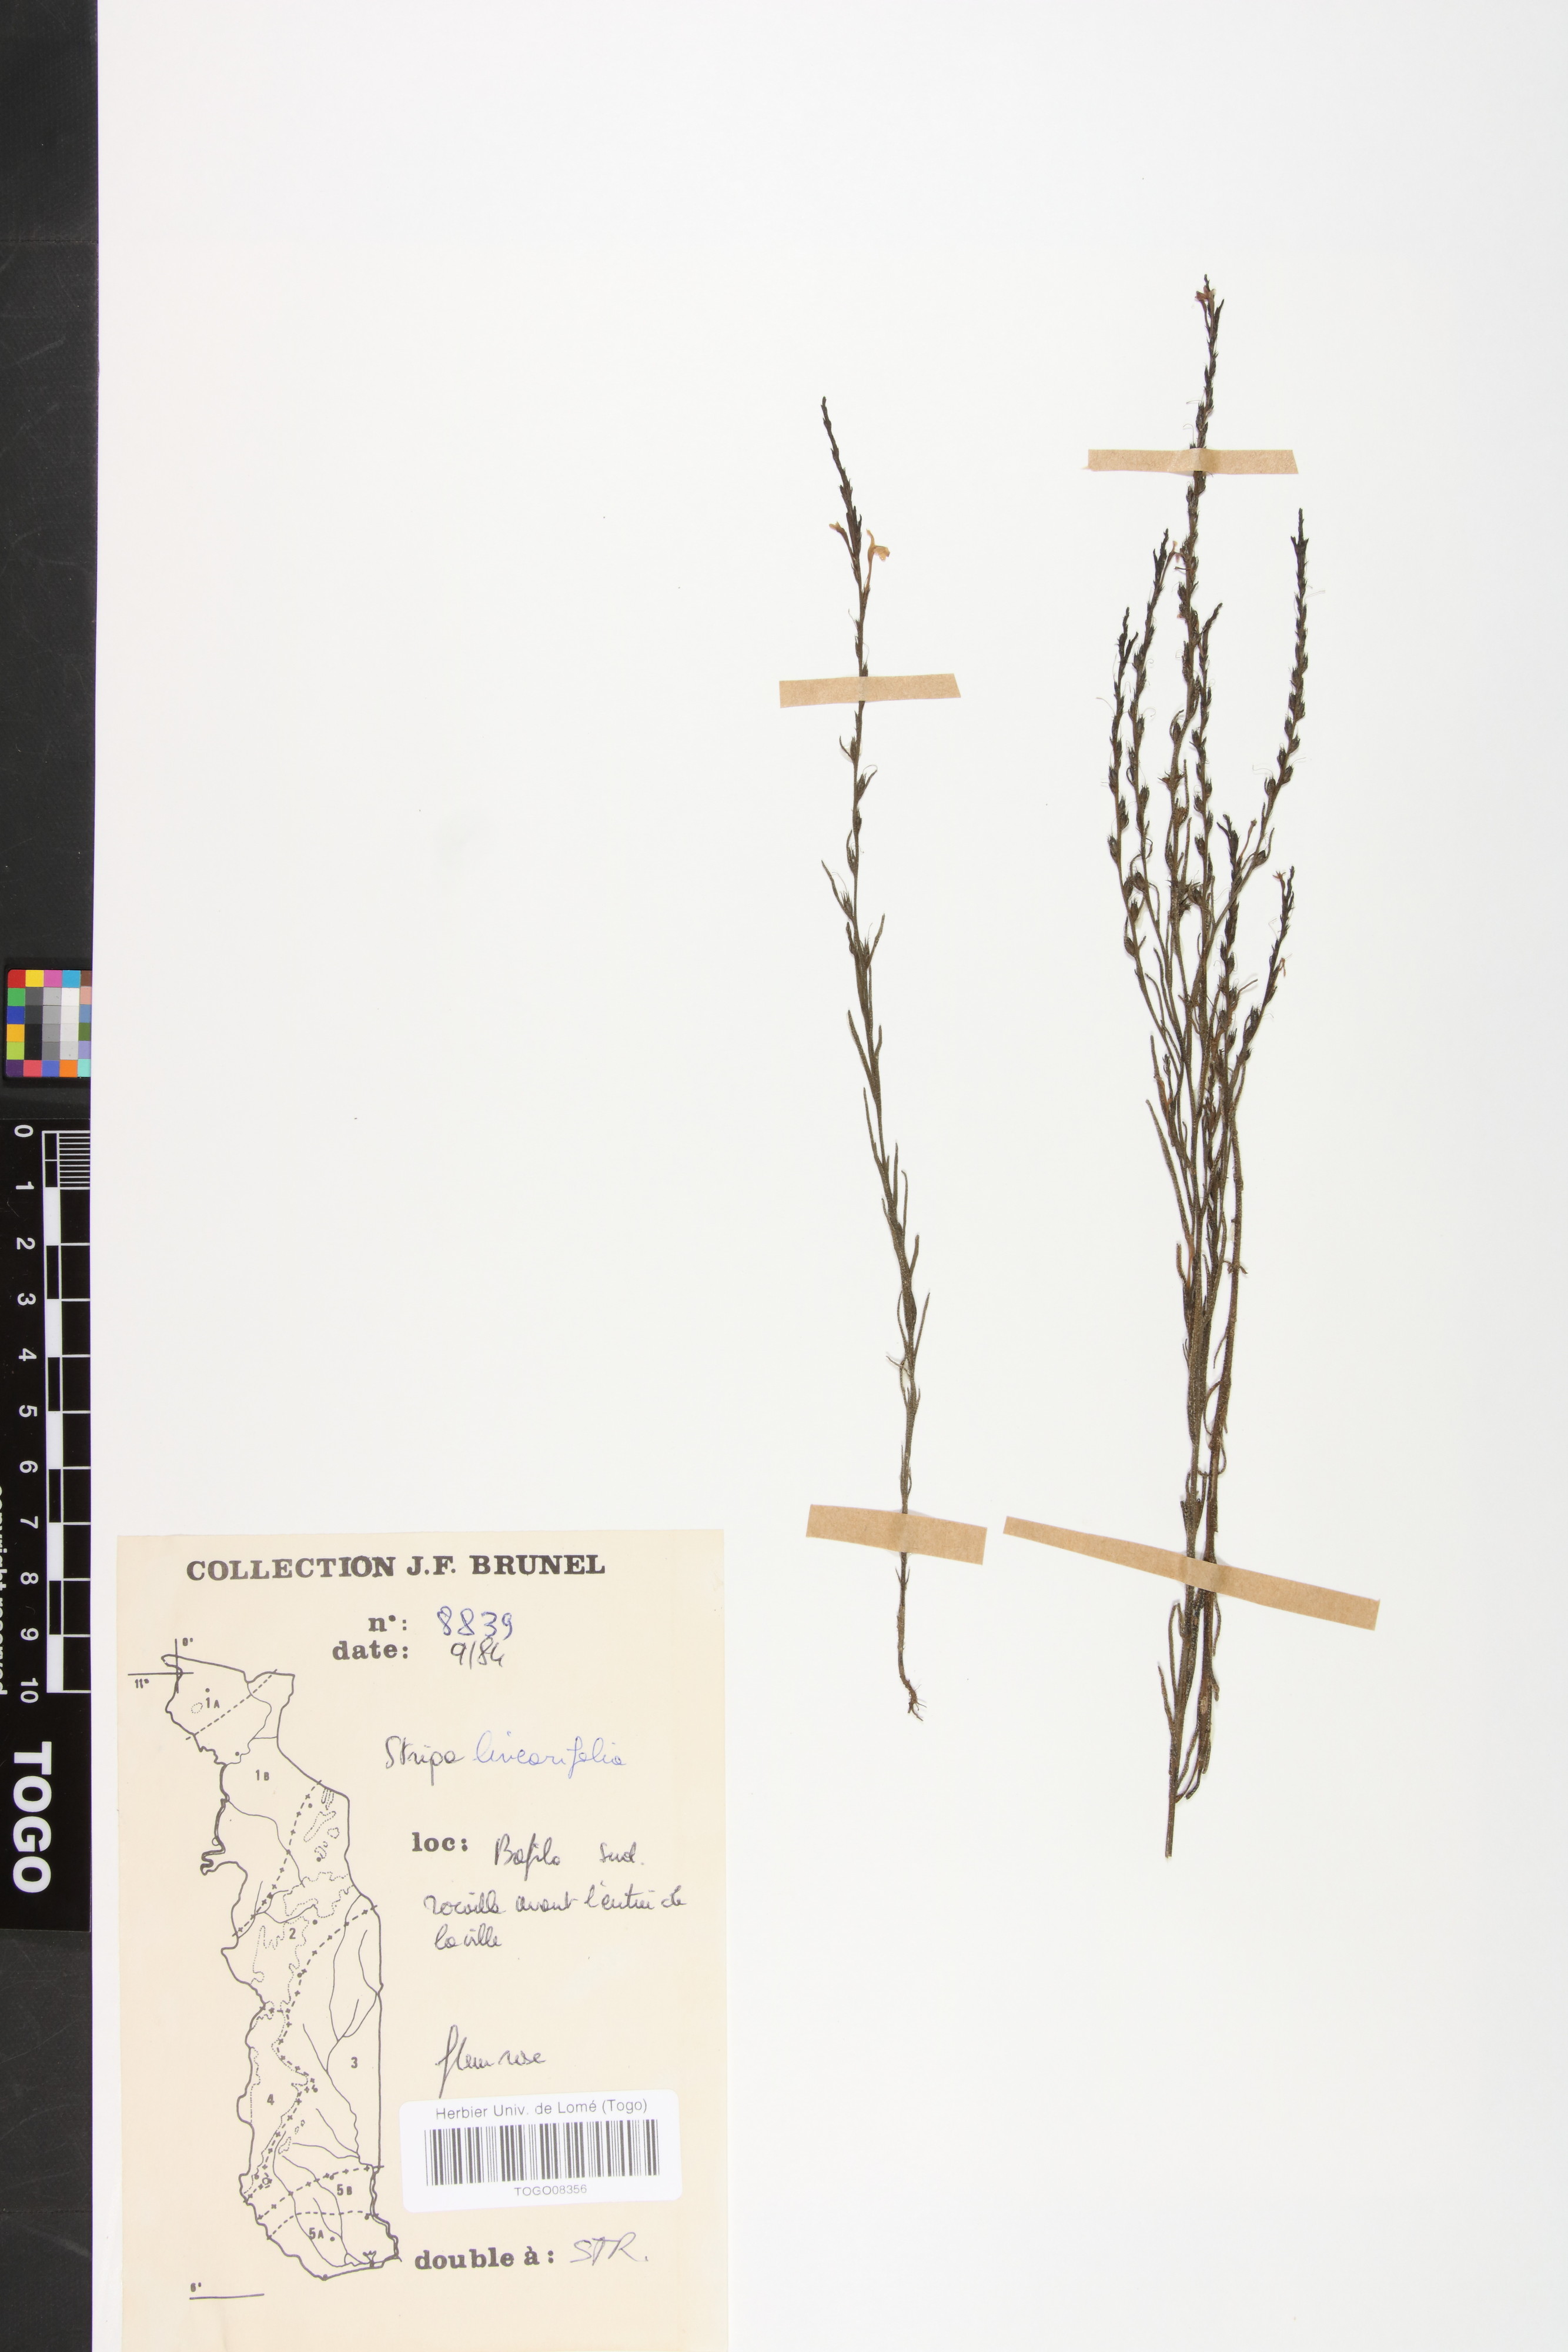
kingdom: Plantae
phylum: Tracheophyta
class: Magnoliopsida
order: Lamiales
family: Orobanchaceae
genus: Striga
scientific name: Striga linearifolia
